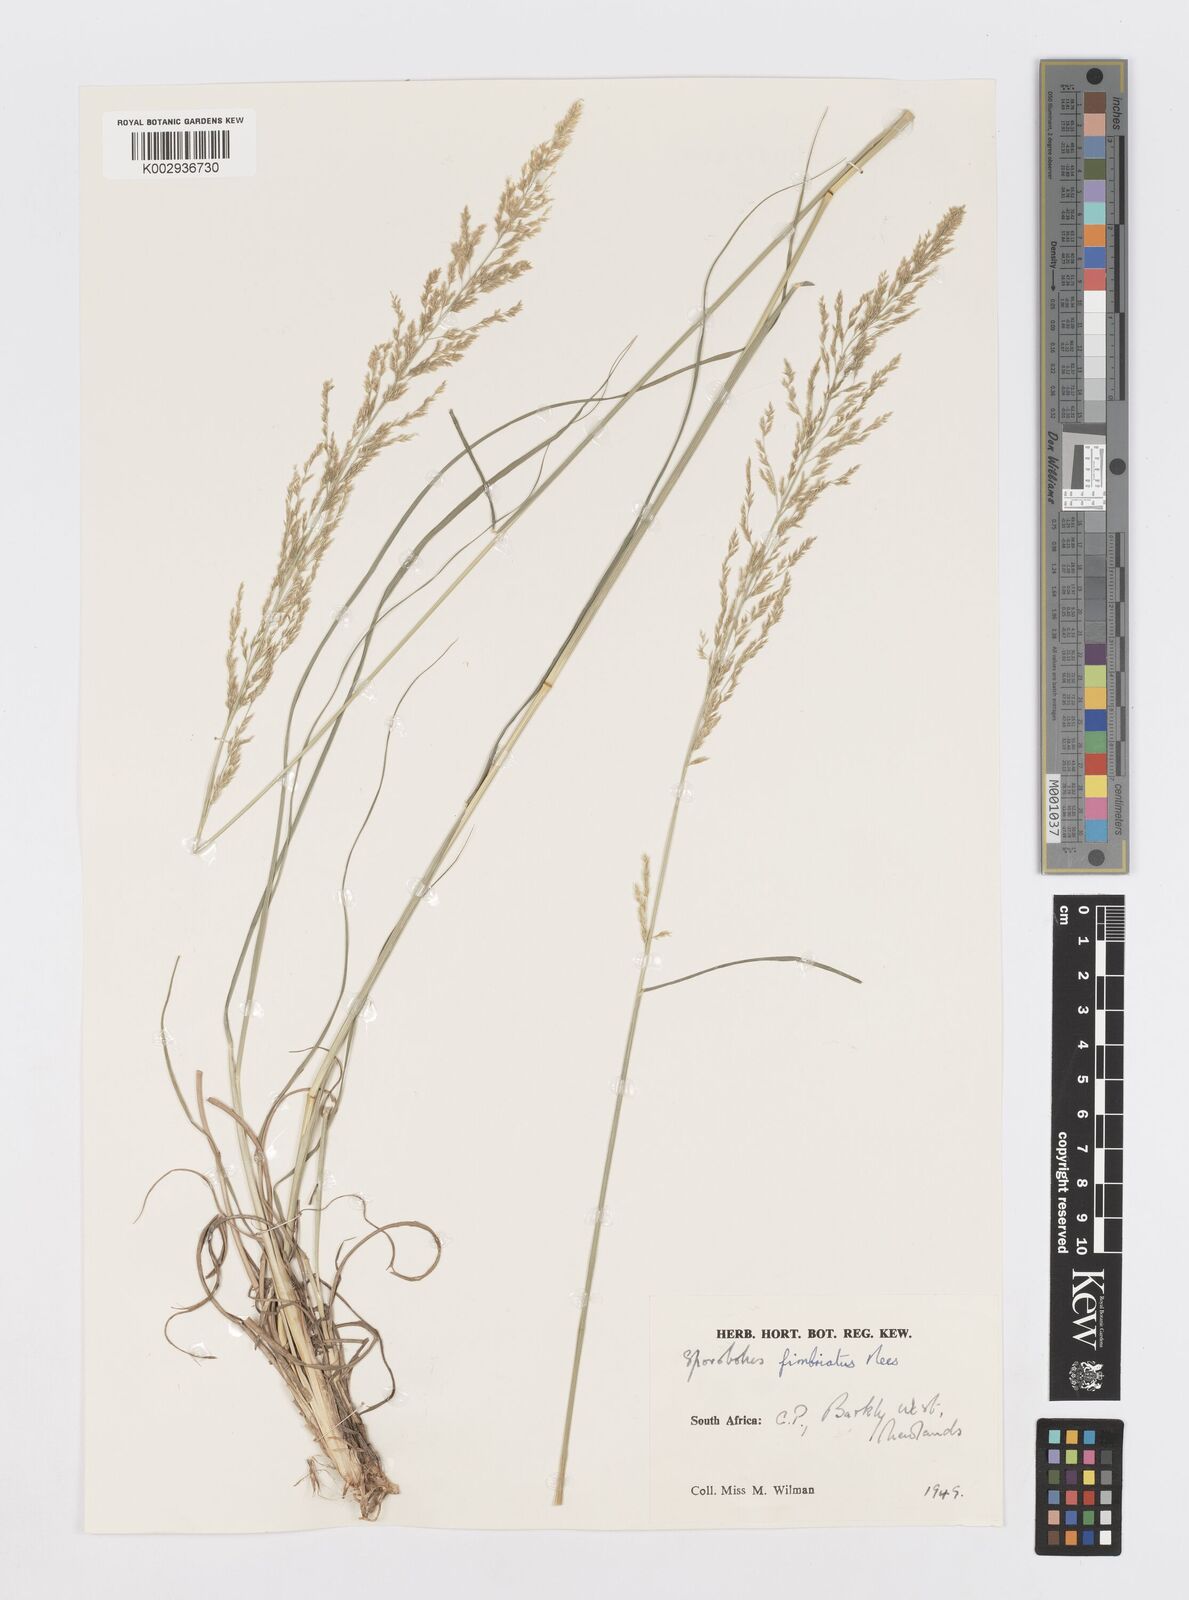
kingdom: Plantae
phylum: Tracheophyta
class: Liliopsida
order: Poales
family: Poaceae
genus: Sporobolus
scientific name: Sporobolus fimbriatus
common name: Fringed dropseed
